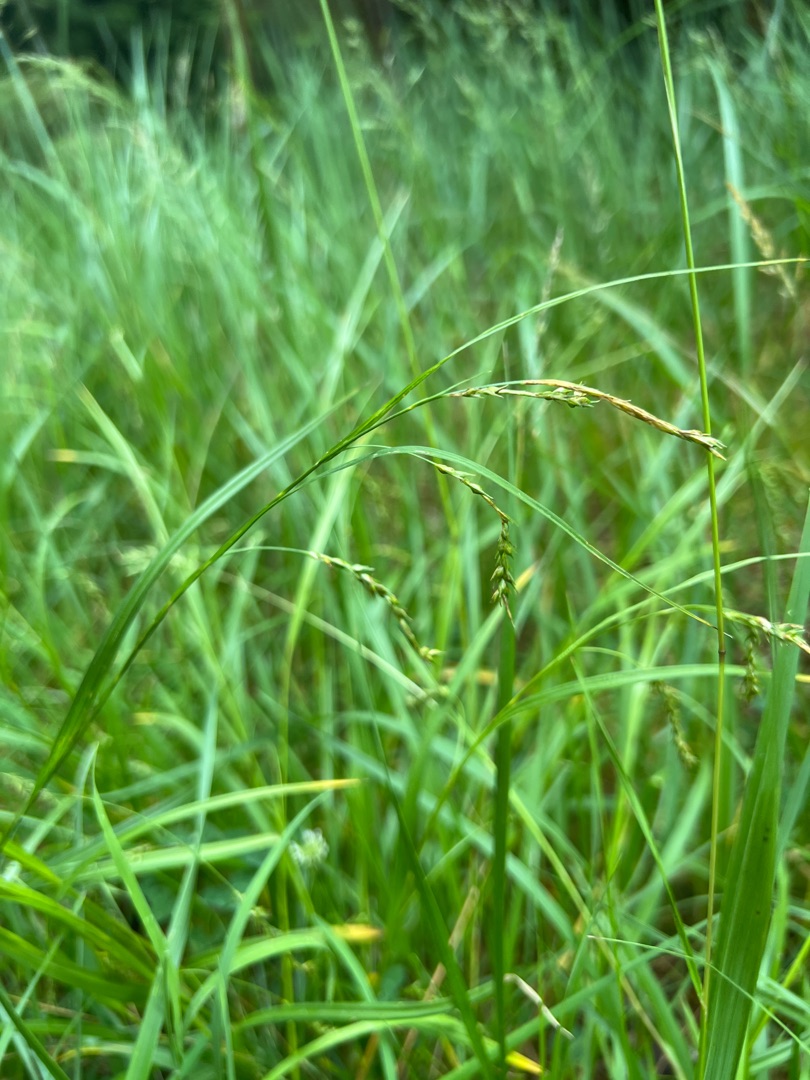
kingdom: Plantae
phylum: Tracheophyta
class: Liliopsida
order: Poales
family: Cyperaceae
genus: Carex
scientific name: Carex sylvatica
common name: Skov-star
